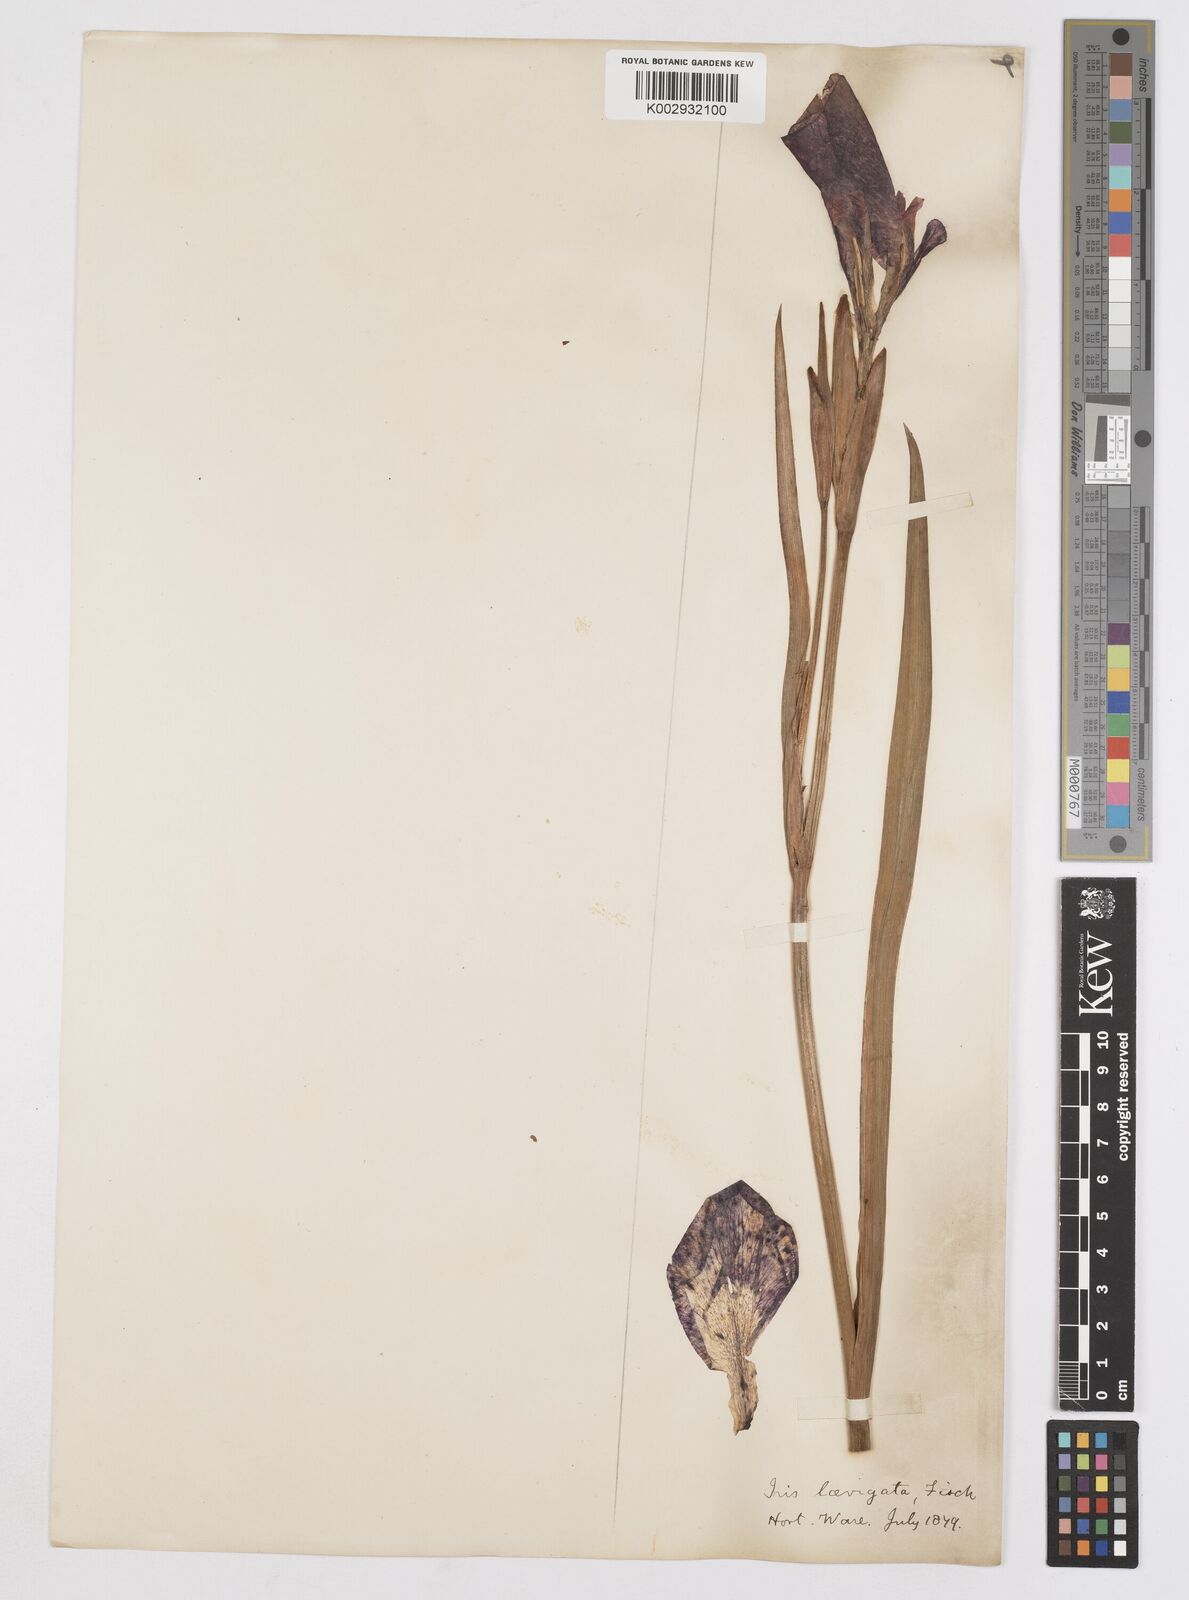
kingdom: Plantae
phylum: Tracheophyta
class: Liliopsida
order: Asparagales
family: Iridaceae
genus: Iris
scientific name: Iris laevigata
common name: Japanese iris
